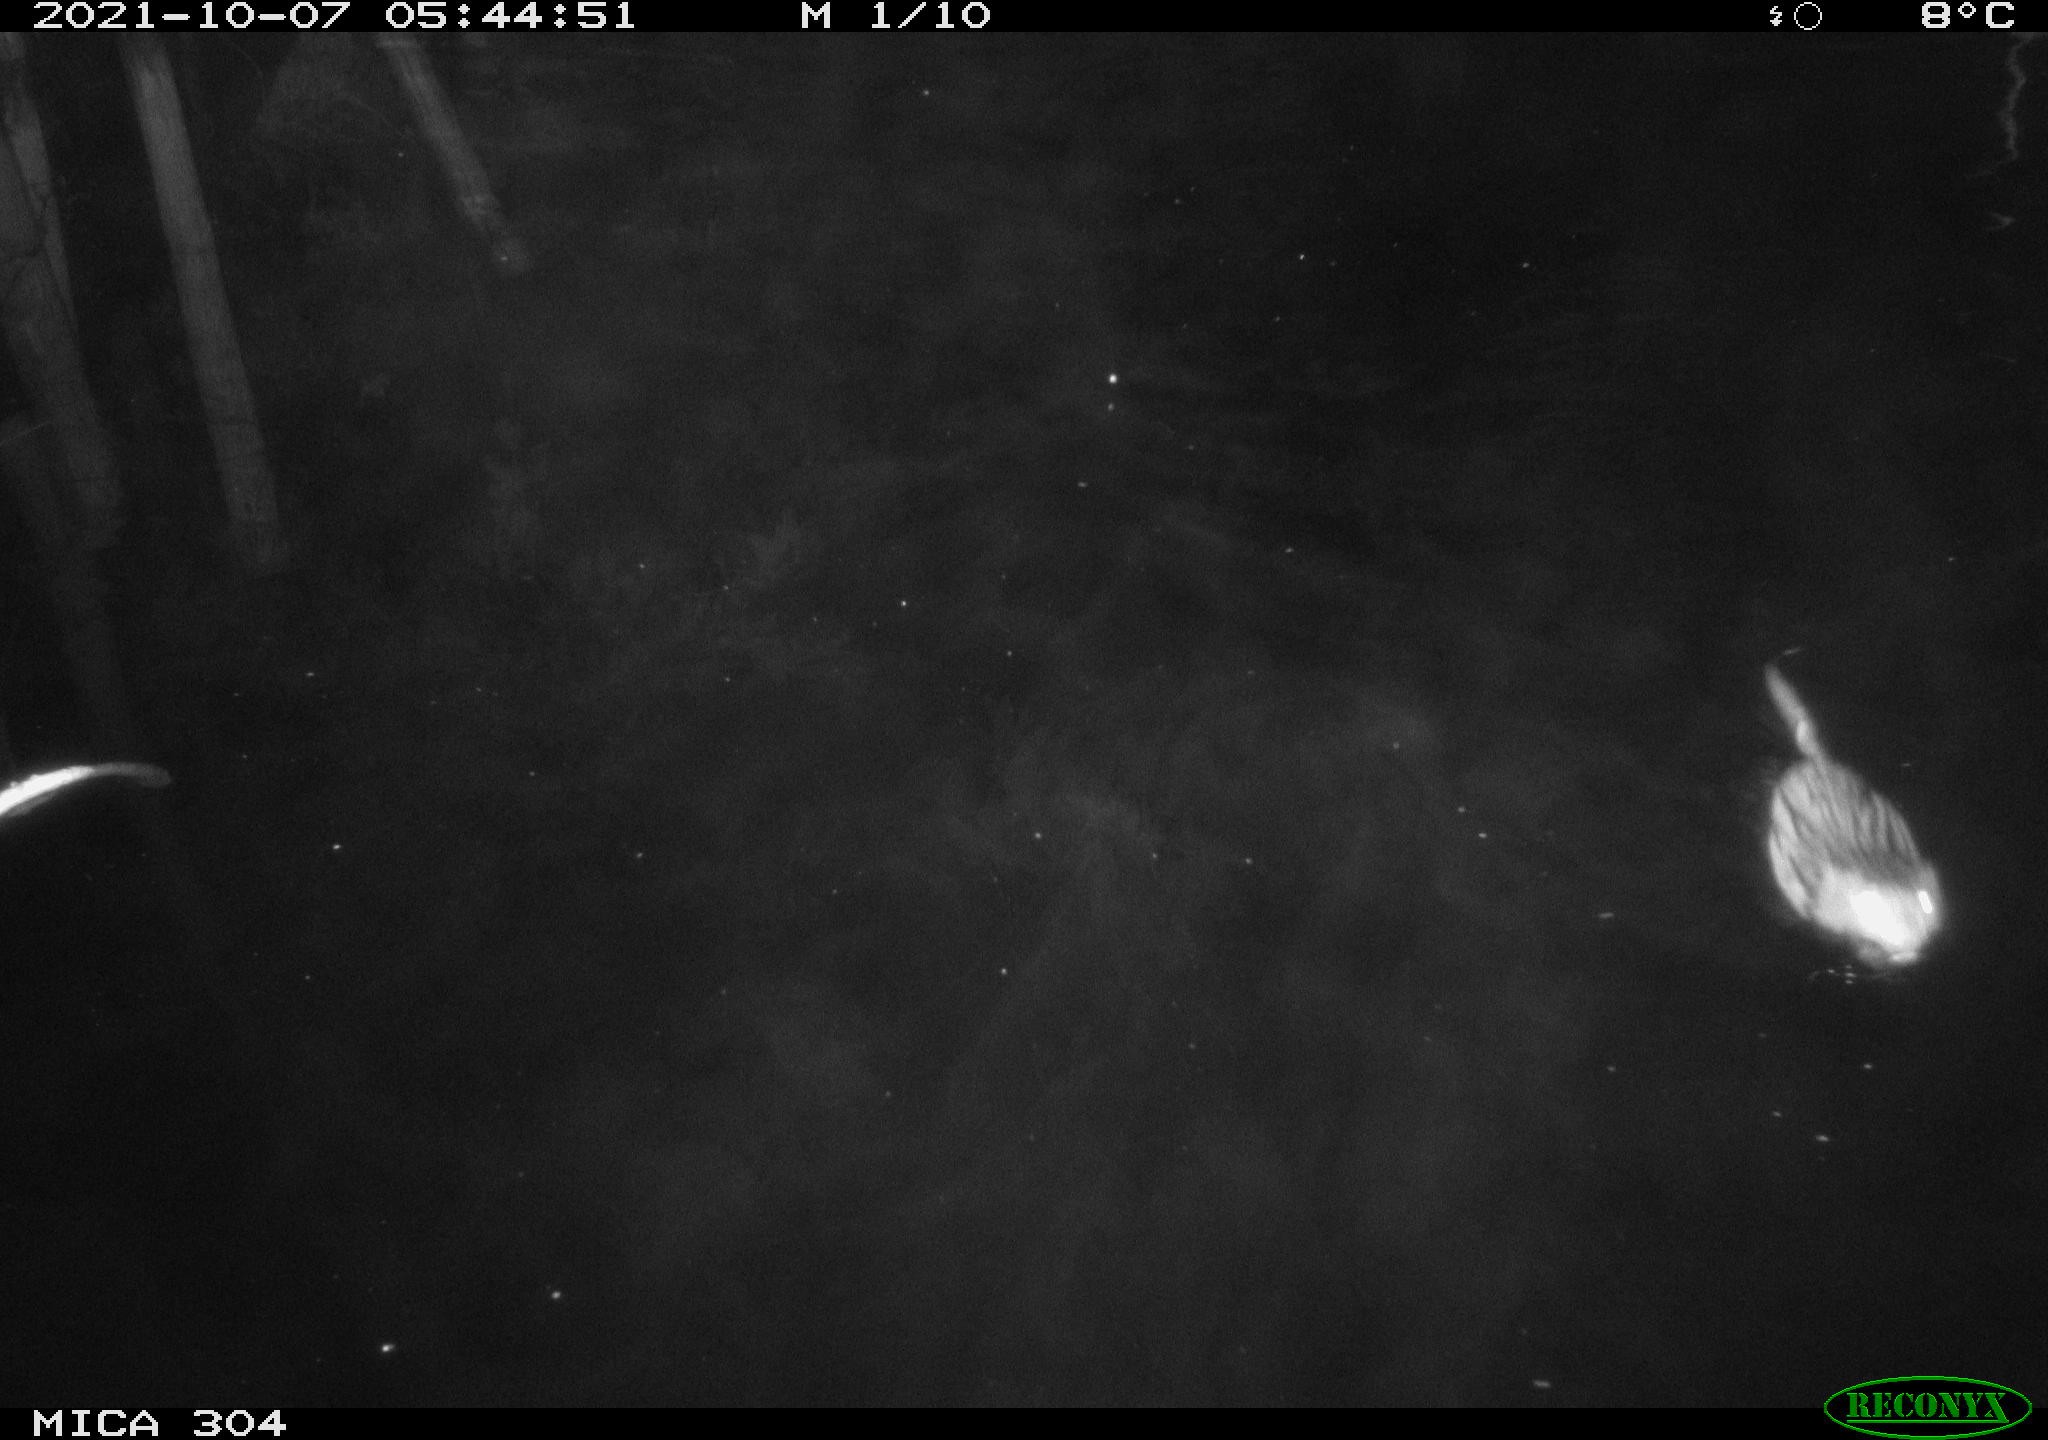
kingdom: Animalia
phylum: Chordata
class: Mammalia
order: Rodentia
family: Cricetidae
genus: Ondatra
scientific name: Ondatra zibethicus
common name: Muskrat
